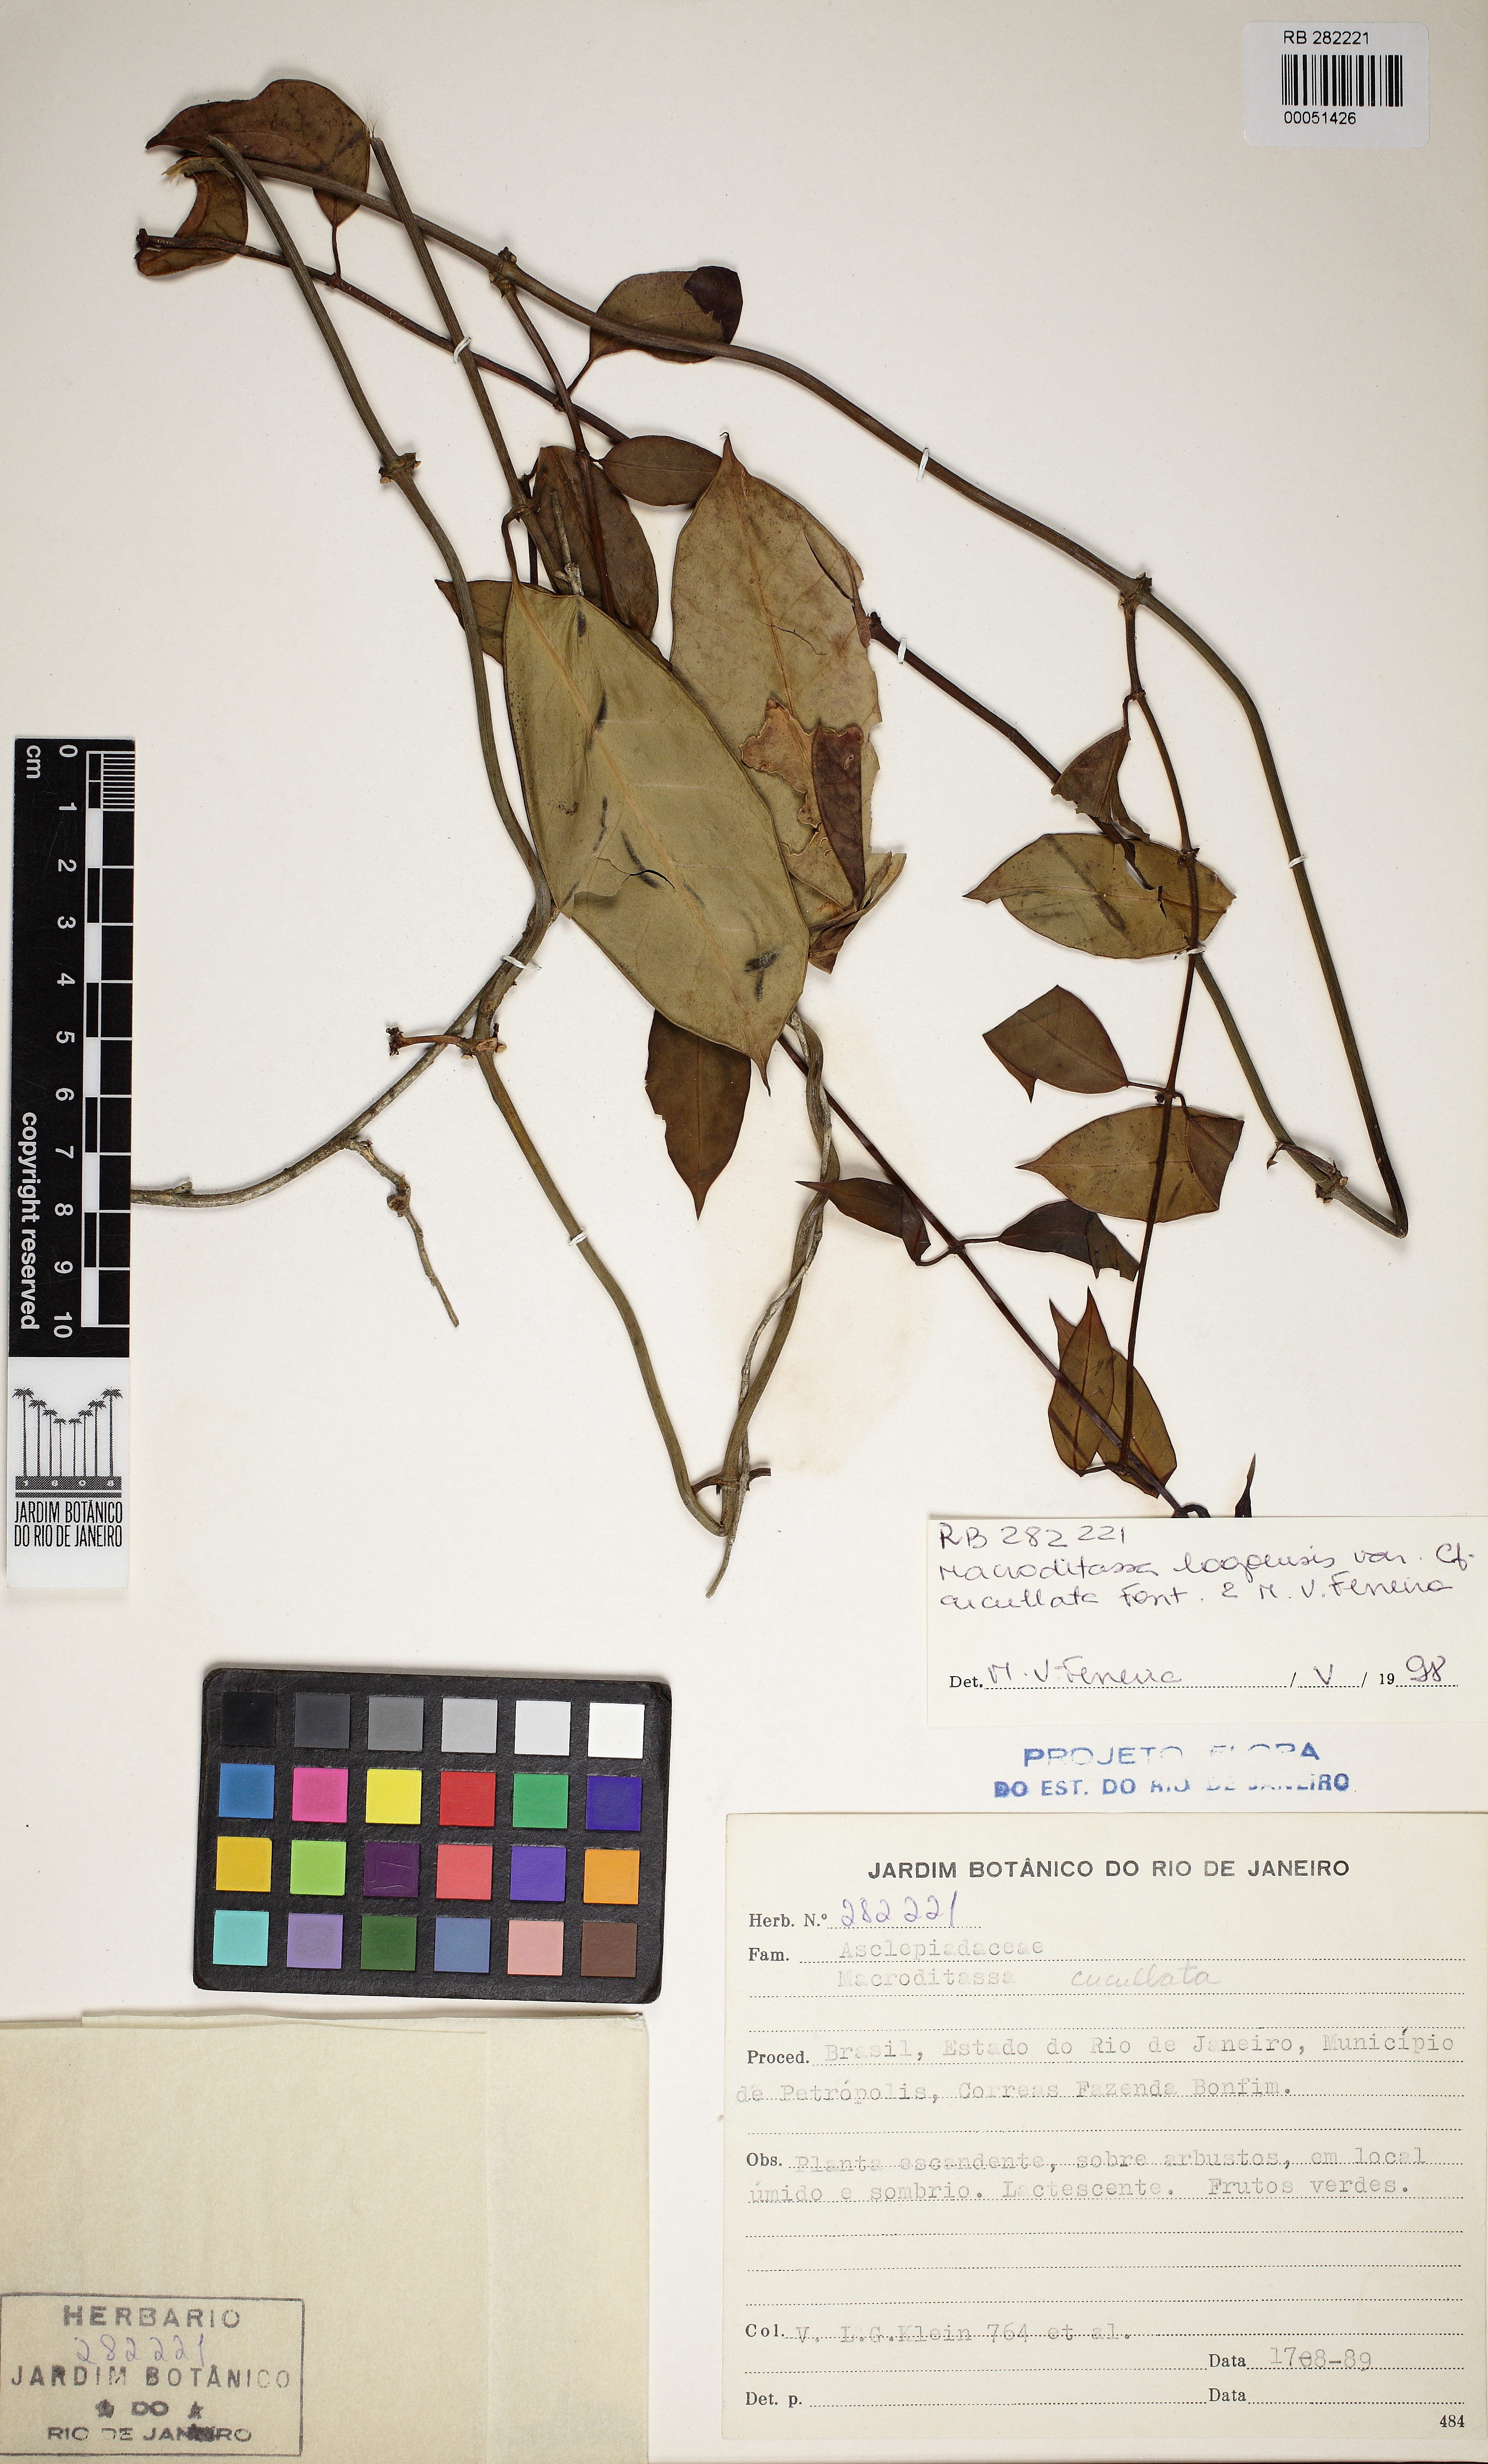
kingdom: Plantae
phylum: Tracheophyta
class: Magnoliopsida
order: Gentianales
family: Apocynaceae
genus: Macroditassa
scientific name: Macroditassa lagoensis
